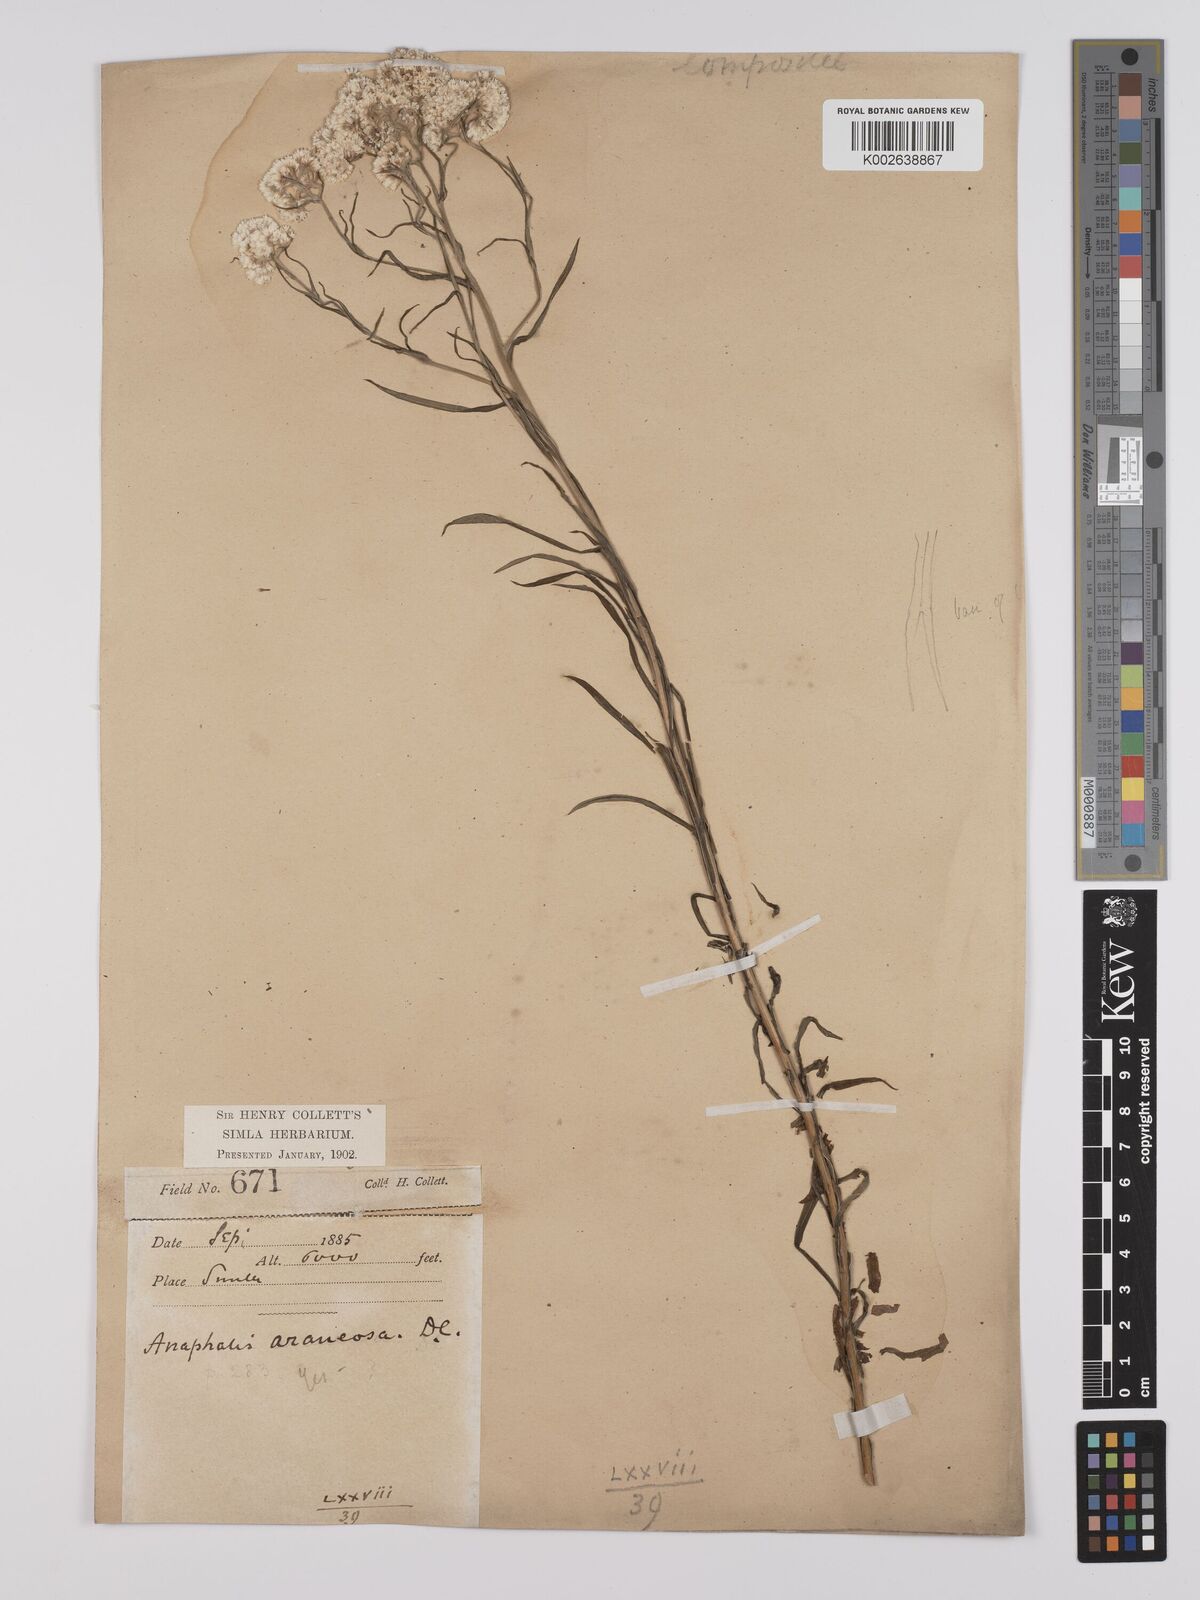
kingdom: Plantae
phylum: Tracheophyta
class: Magnoliopsida
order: Asterales
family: Asteraceae
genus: Anaphalis
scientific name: Anaphalis busua
